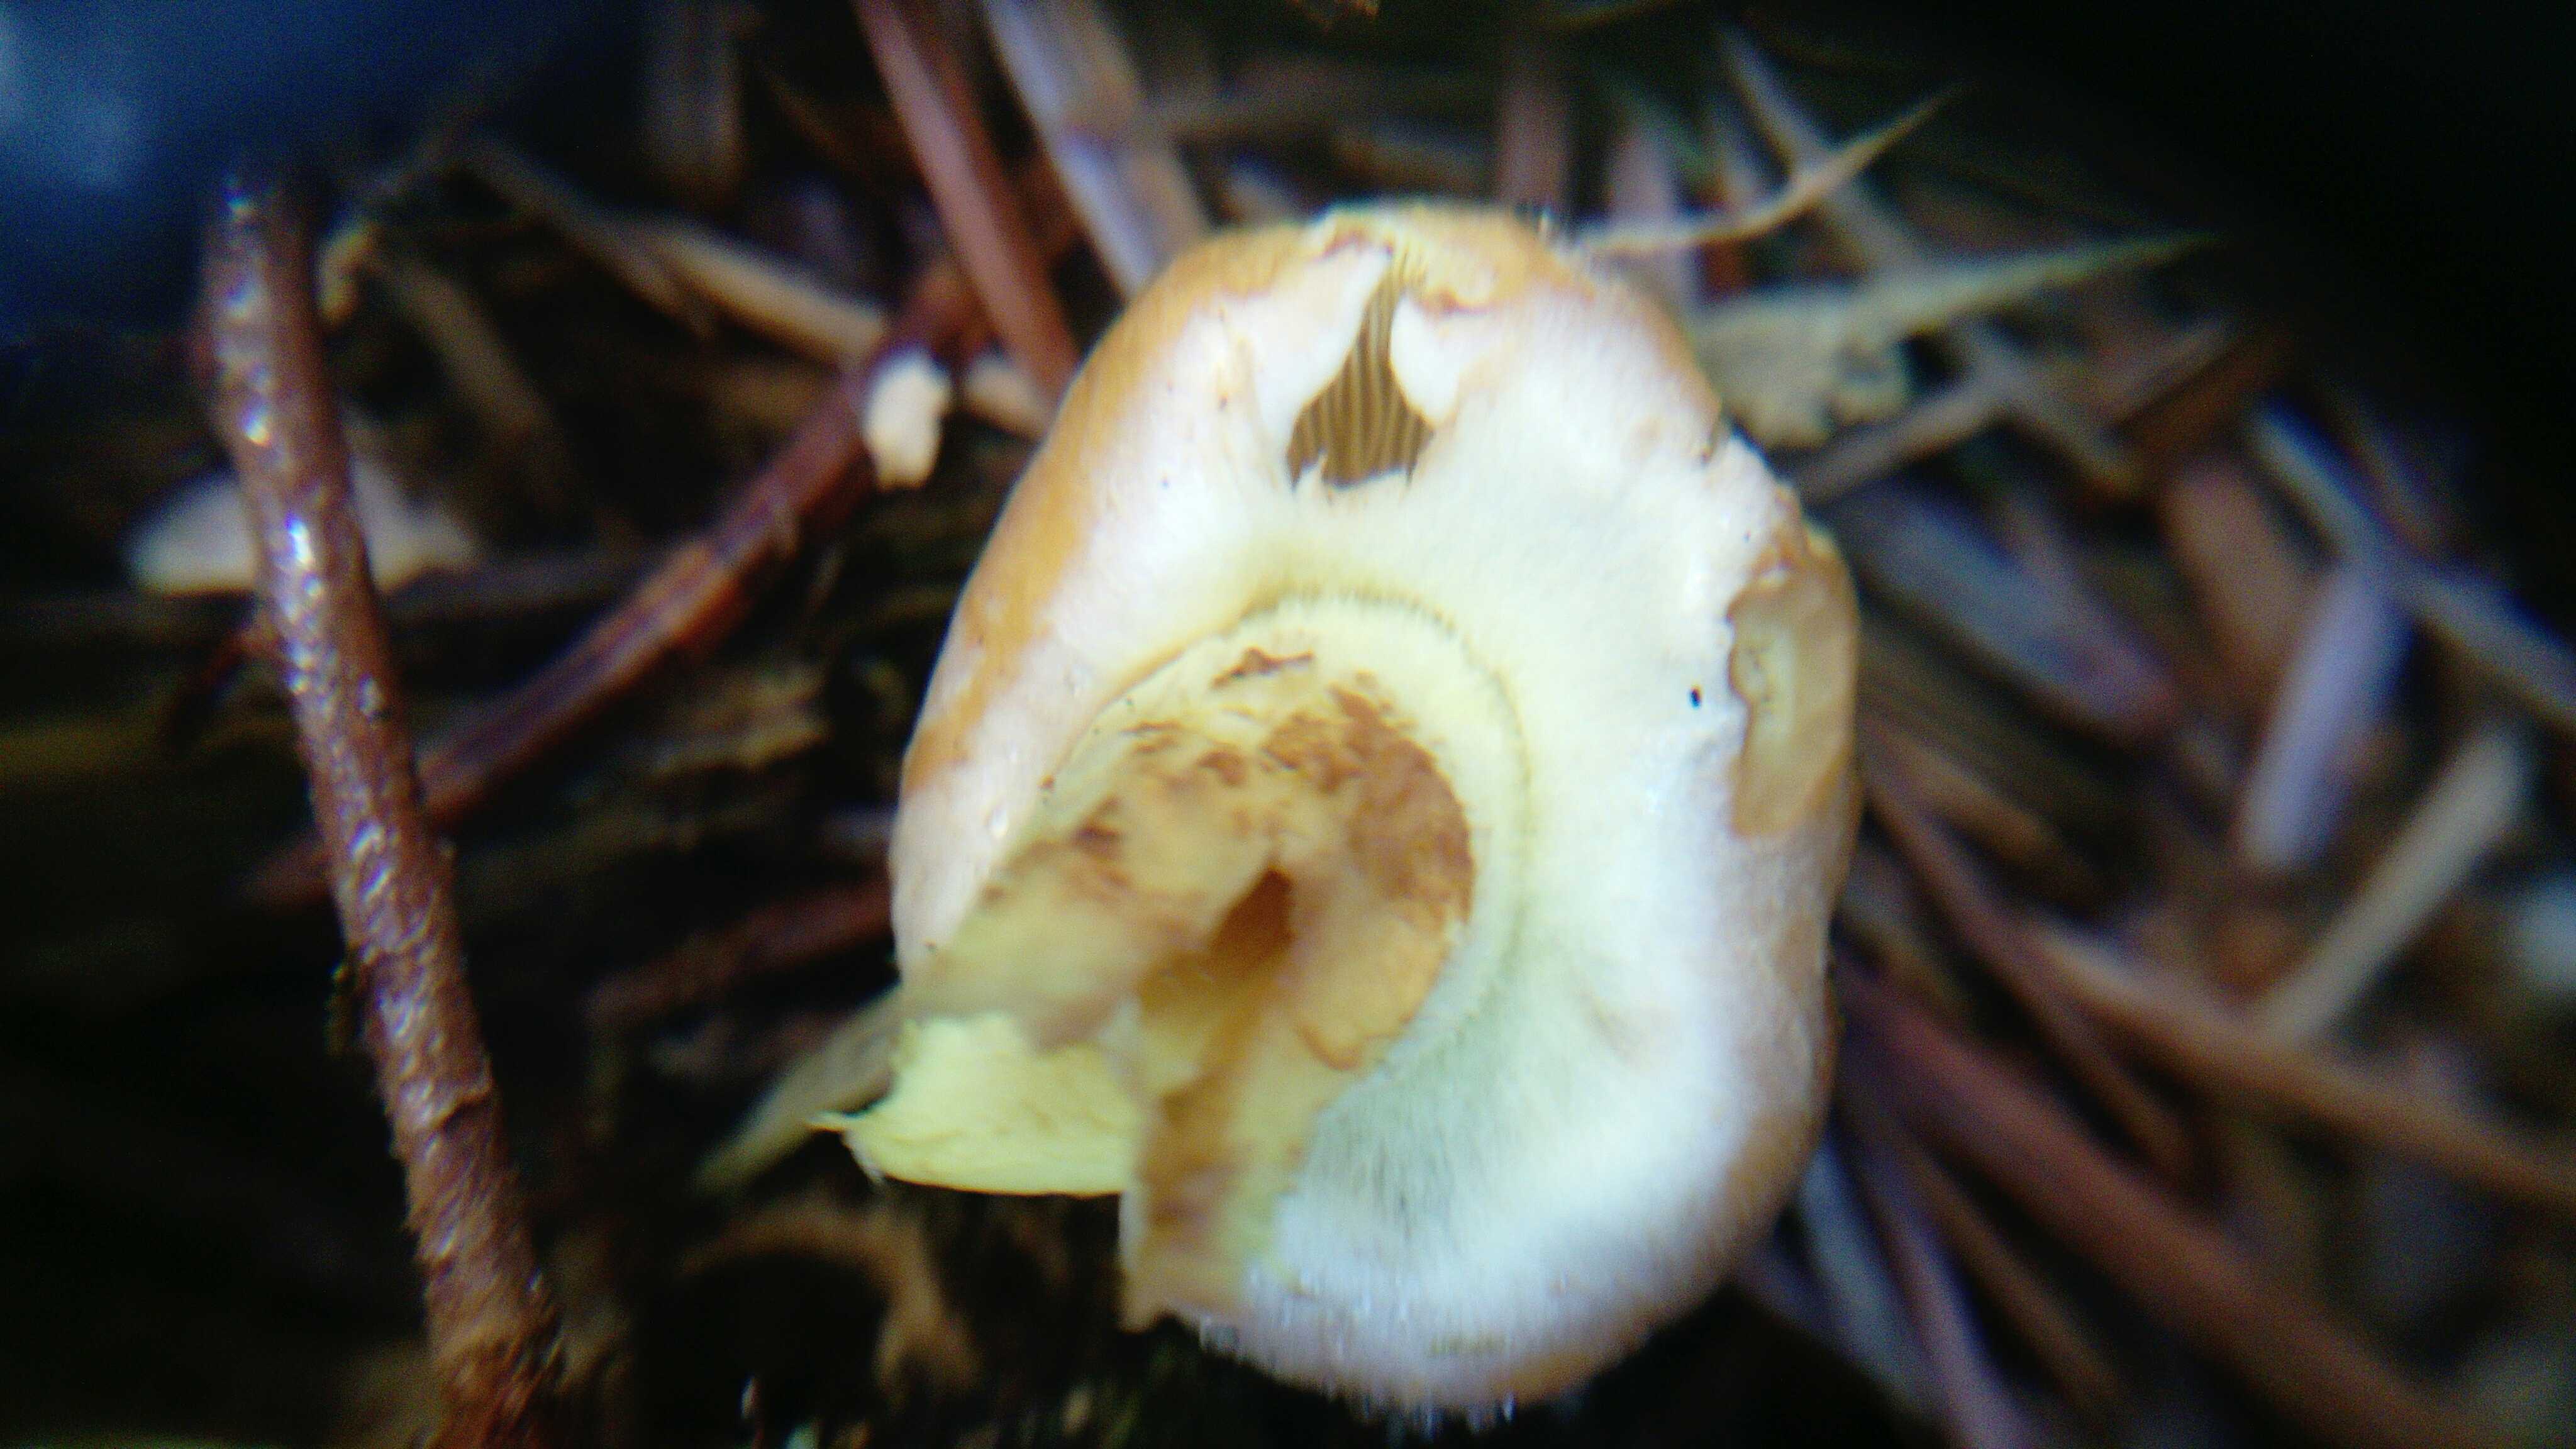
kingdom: Fungi
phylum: Basidiomycota
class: Agaricomycetes
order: Agaricales
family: Strophariaceae
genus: Hypholoma
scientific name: Hypholoma fasciculare
